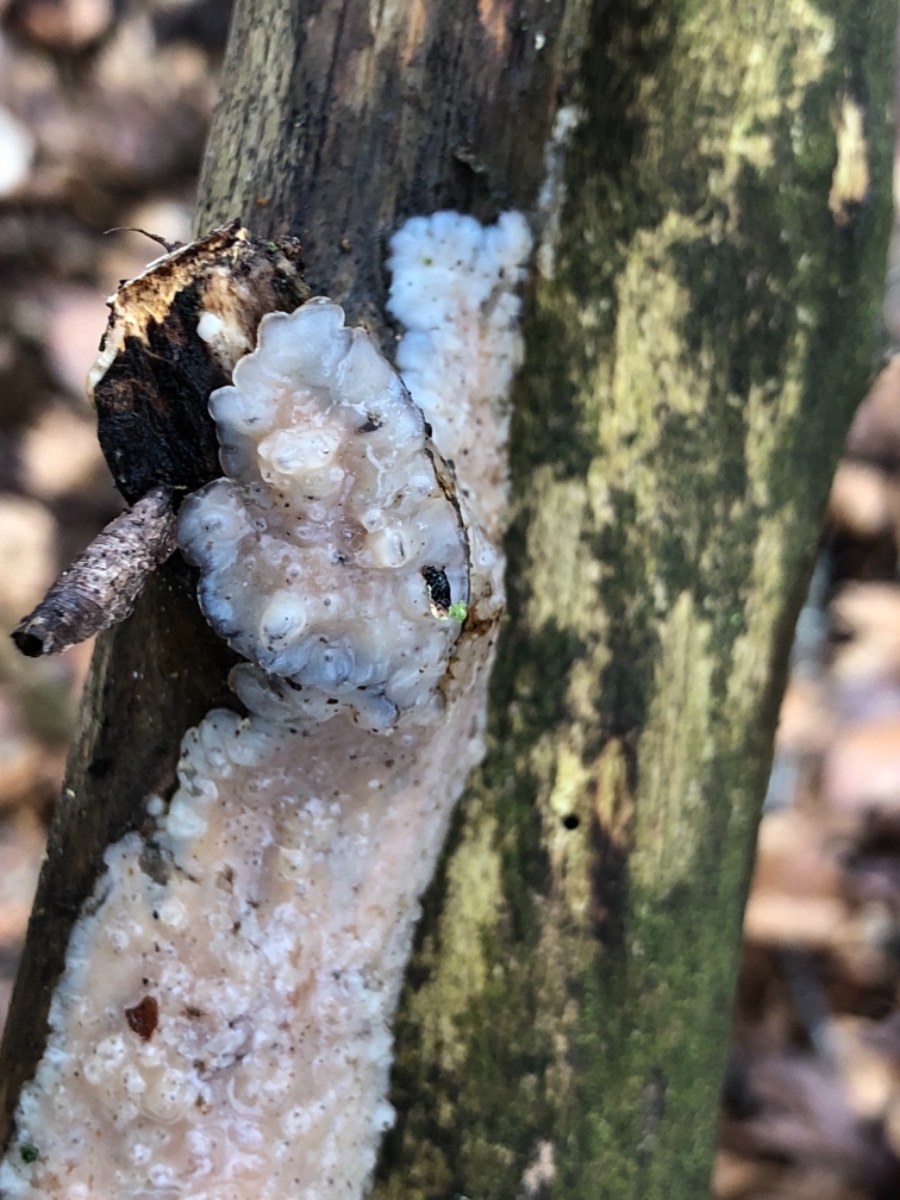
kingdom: Fungi
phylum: Basidiomycota
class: Agaricomycetes
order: Auriculariales
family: Auriculariaceae
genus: Exidia
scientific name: Exidia thuretiana
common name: hvidlig bævretop
